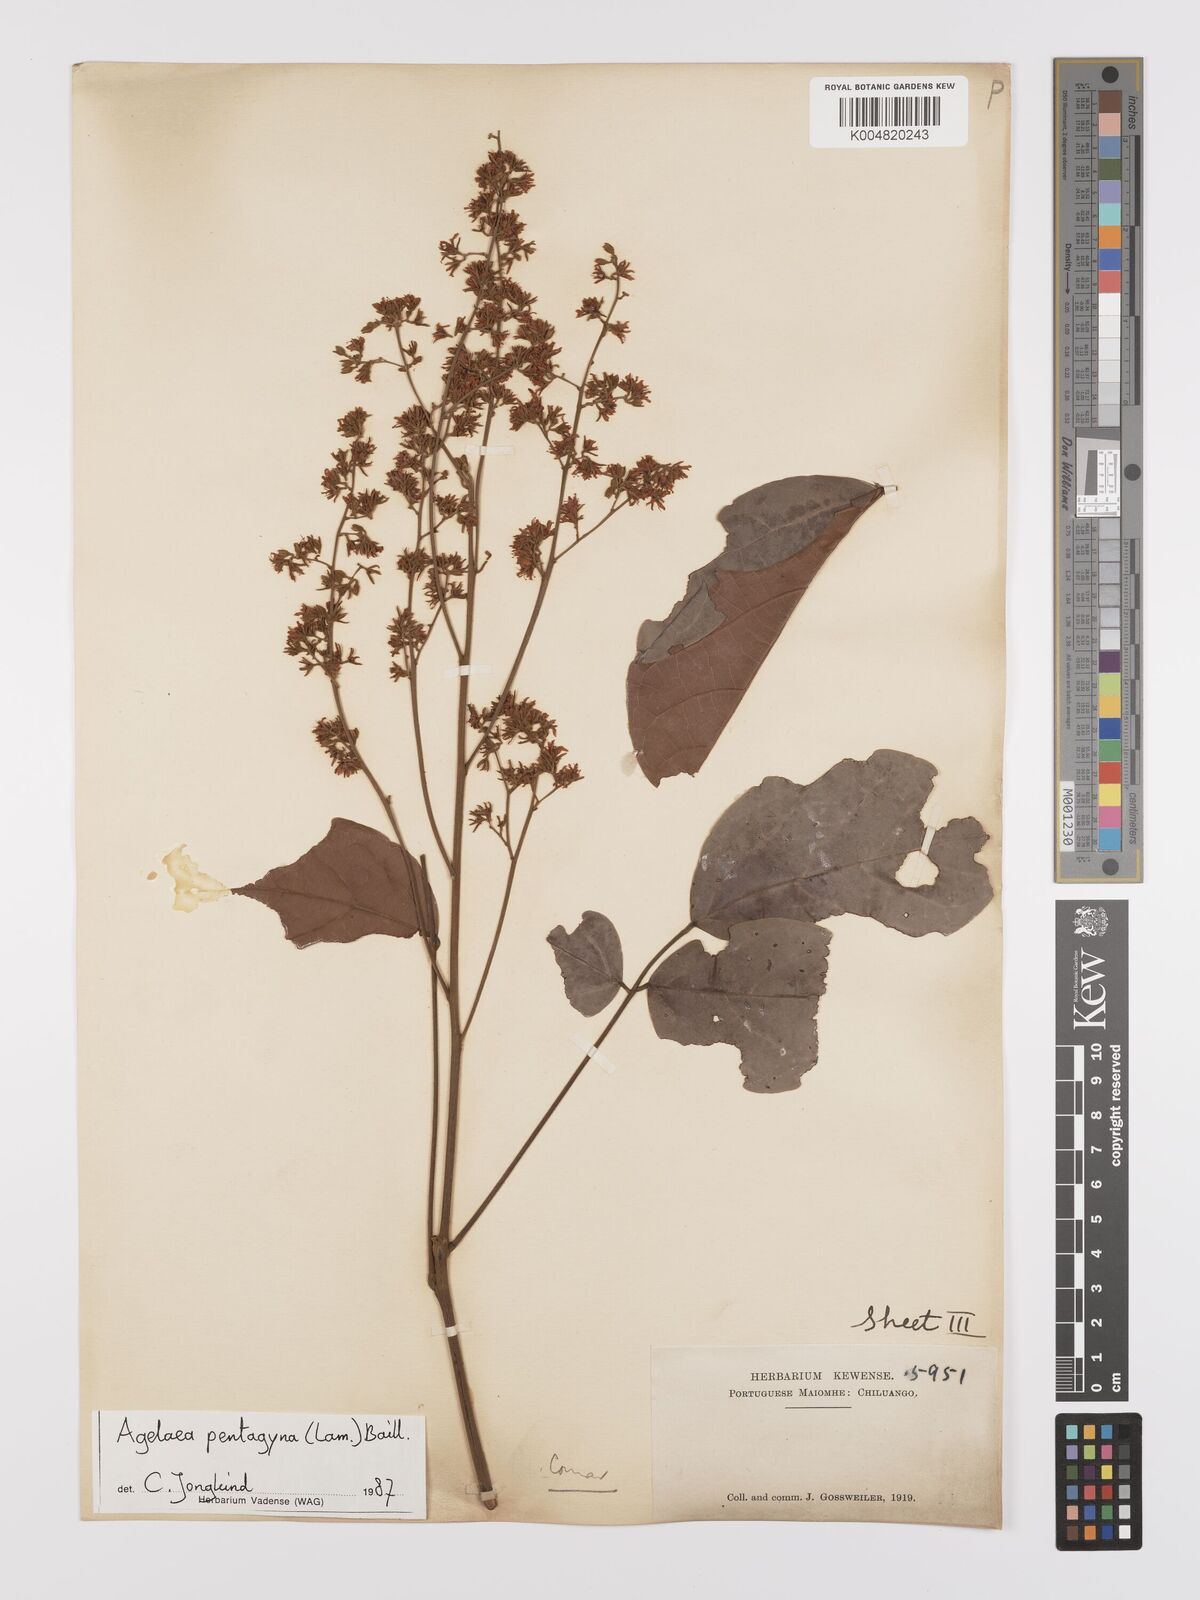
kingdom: Plantae
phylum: Tracheophyta
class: Magnoliopsida
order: Oxalidales
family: Connaraceae
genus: Agelaea
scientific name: Agelaea pentagyna
